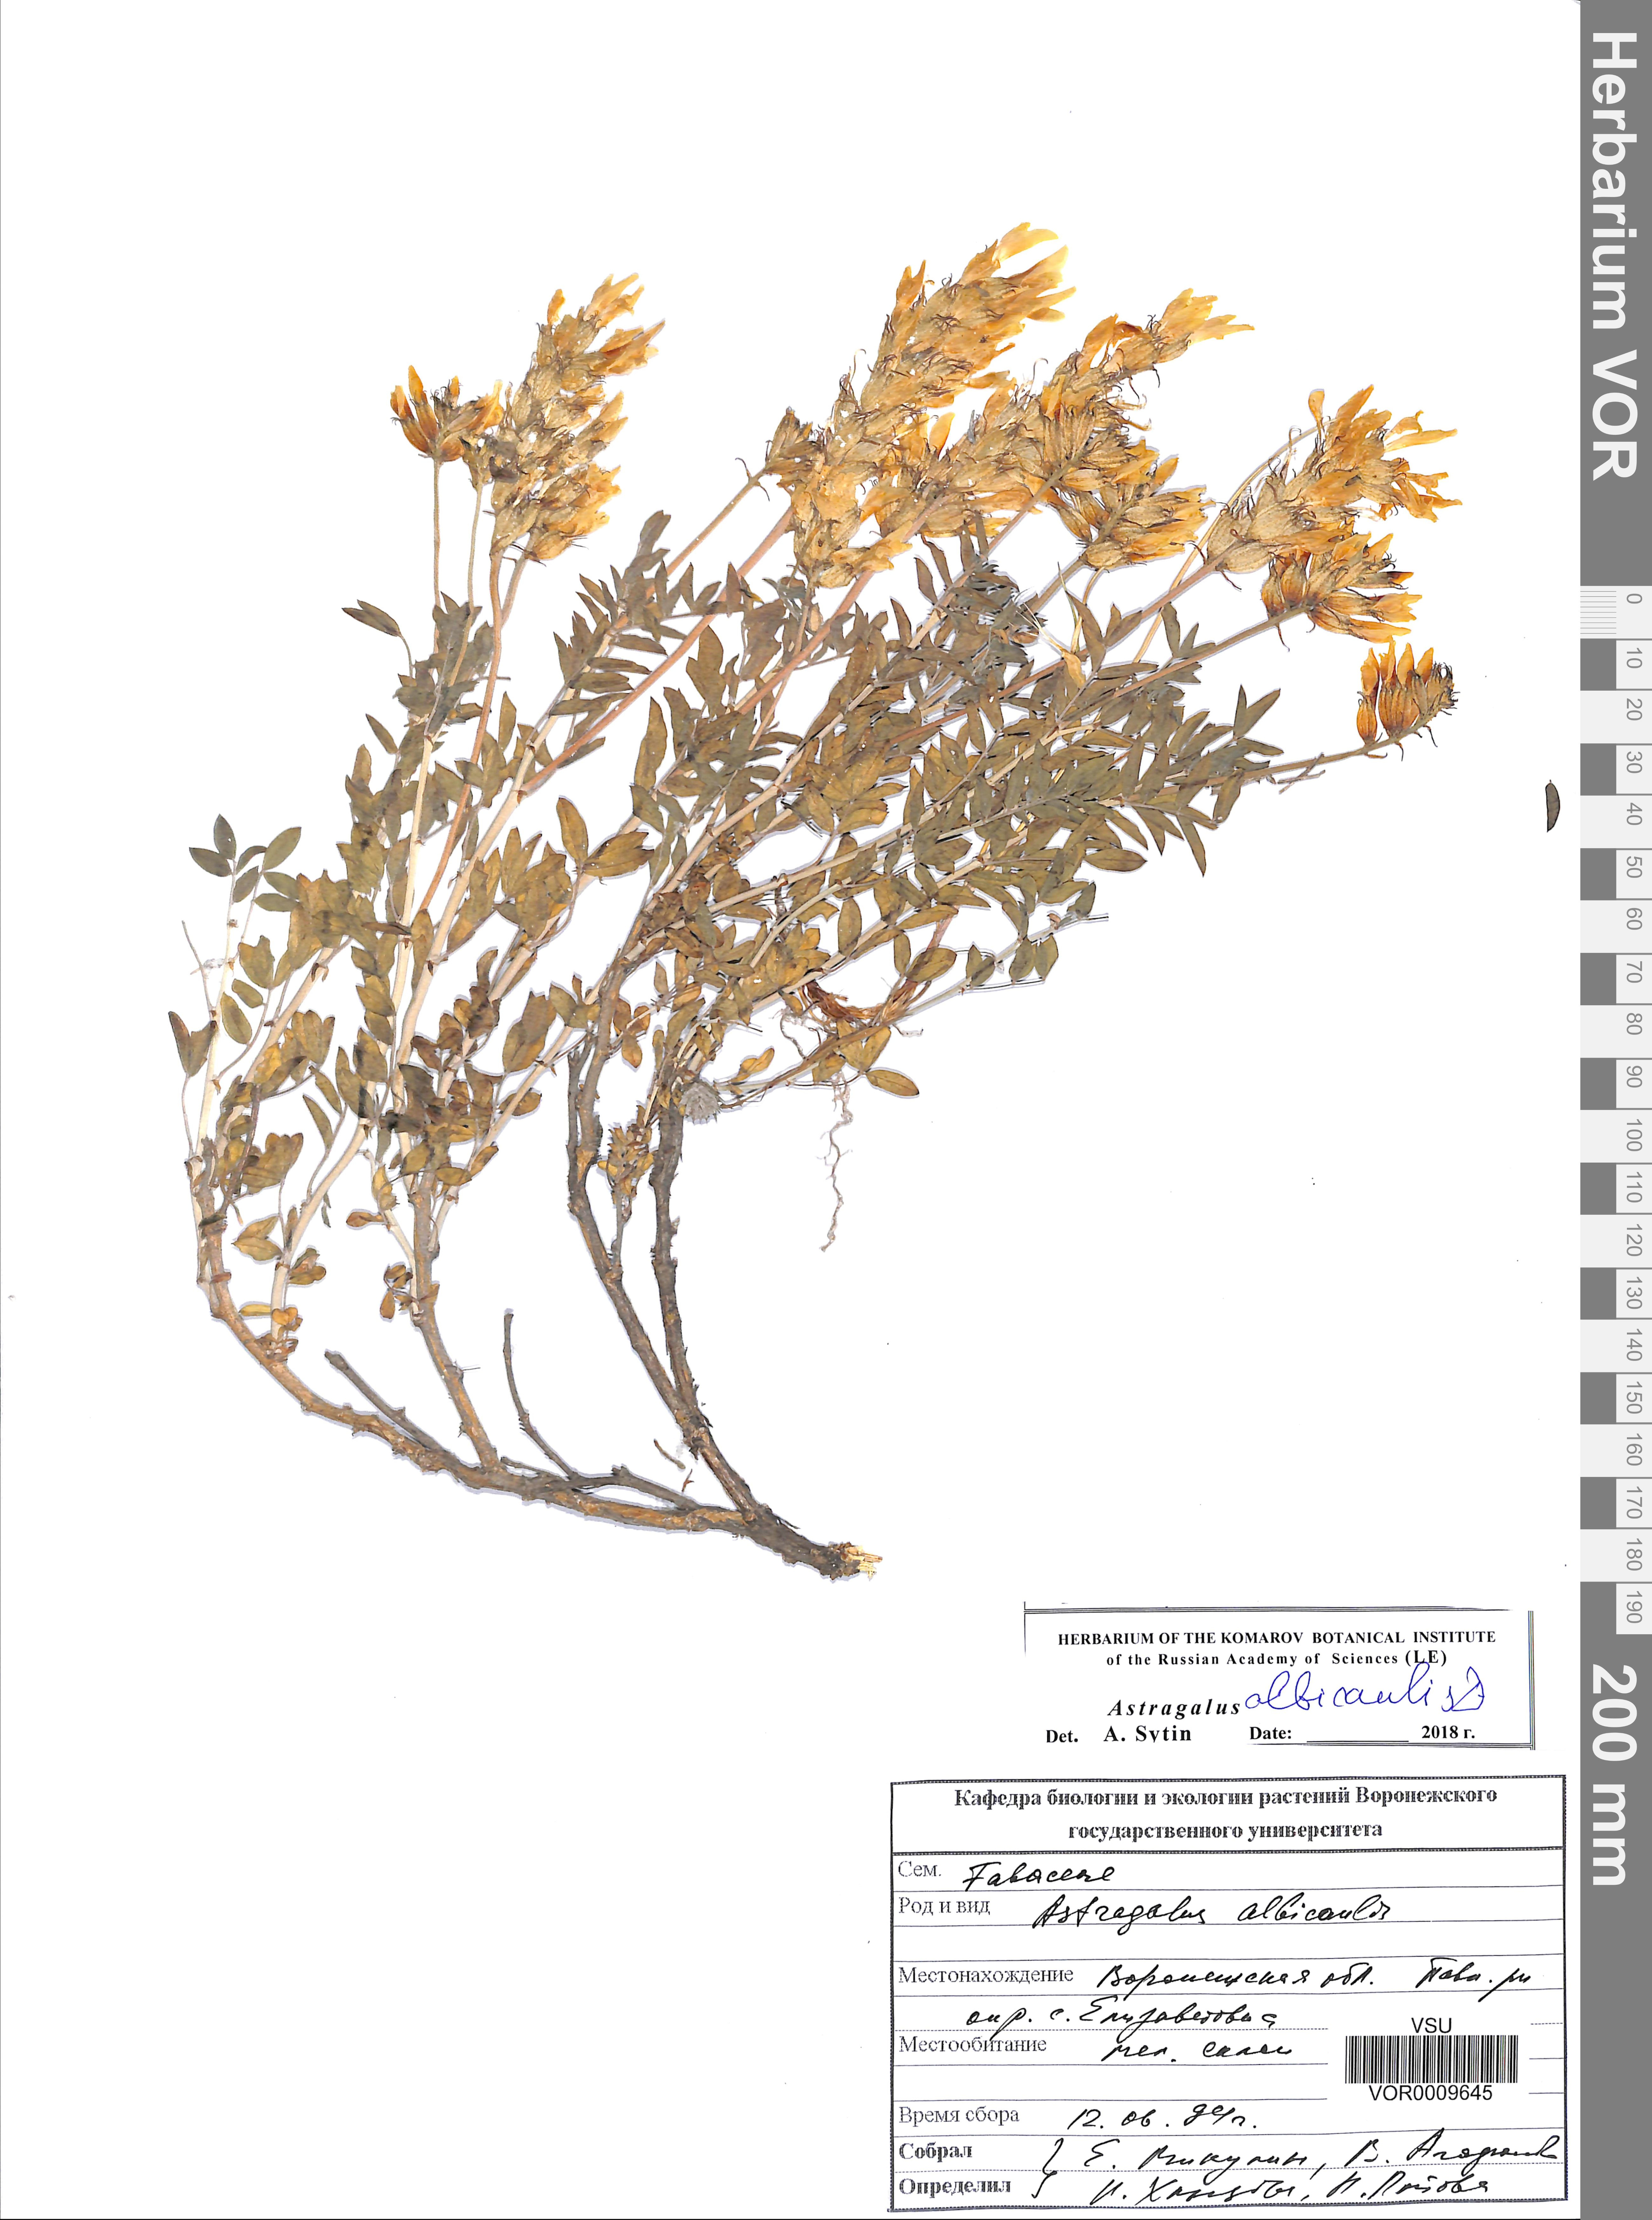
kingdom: Plantae
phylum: Tracheophyta
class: Magnoliopsida
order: Fabales
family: Fabaceae
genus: Astragalus
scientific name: Astragalus albicaulis
